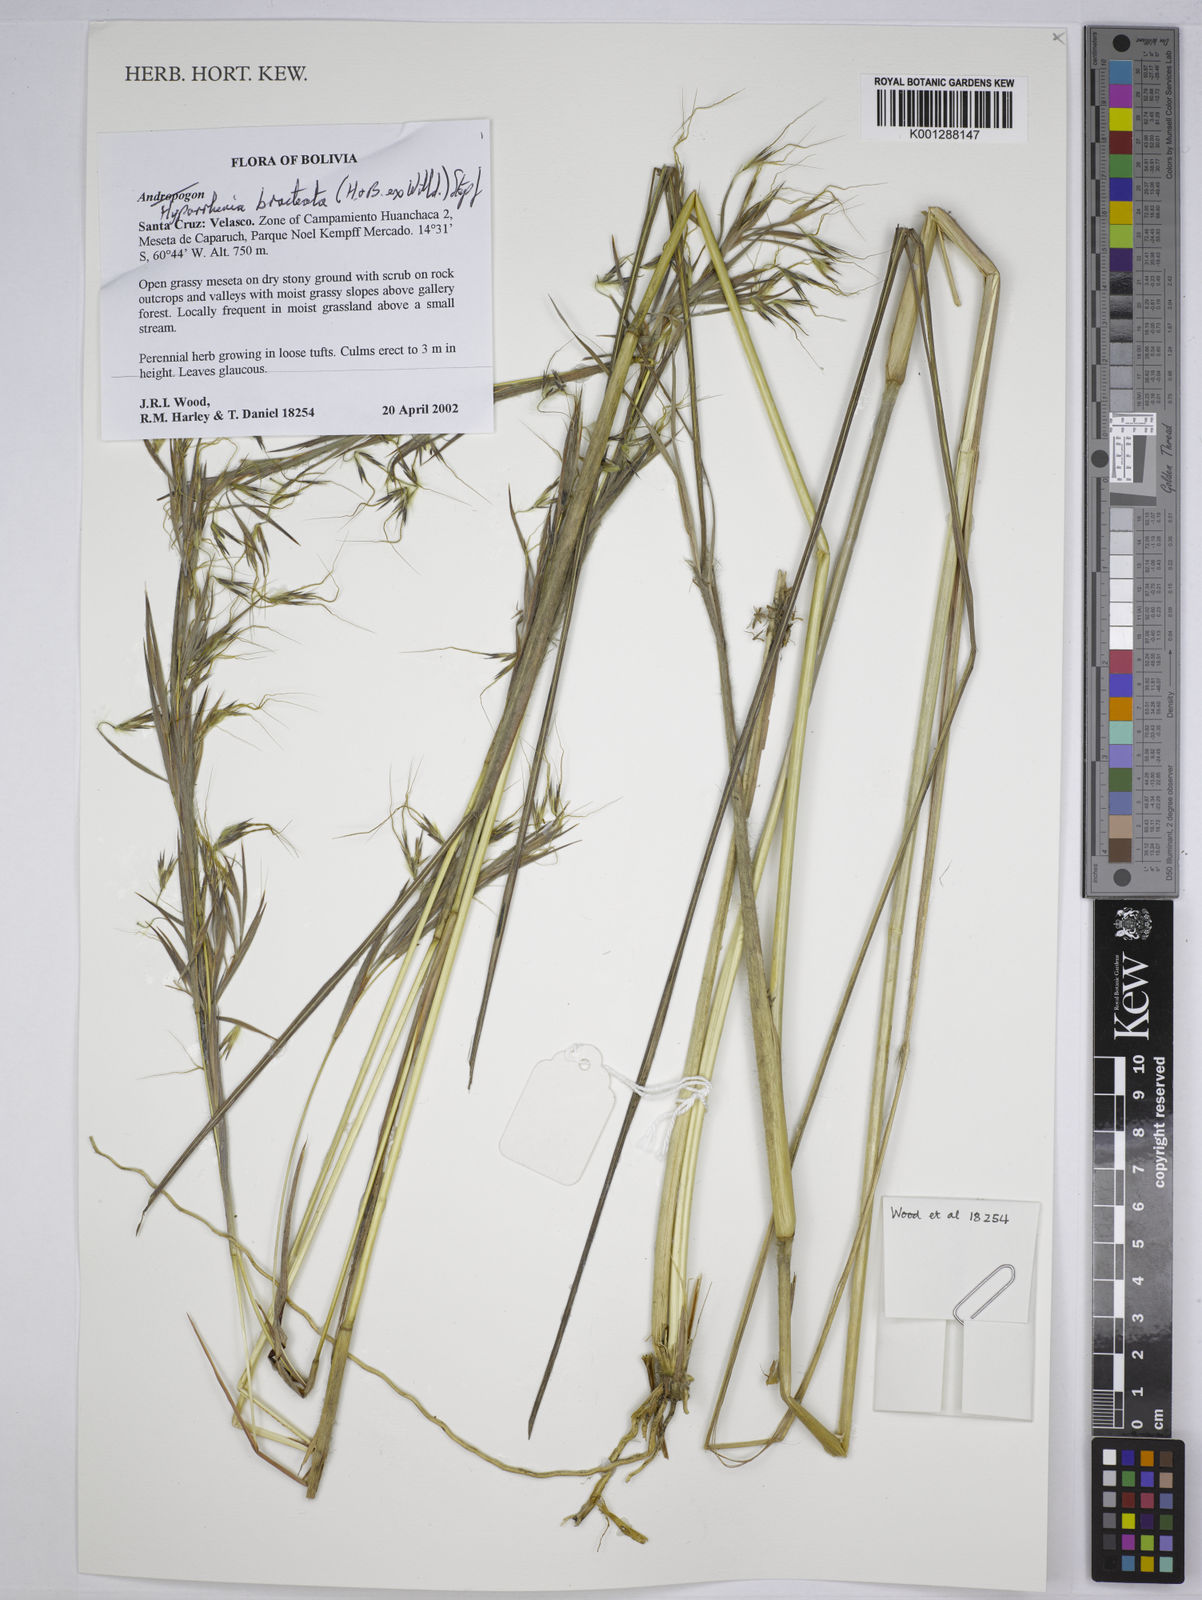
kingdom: Plantae
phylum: Tracheophyta
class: Liliopsida
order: Poales
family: Poaceae
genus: Hyparrhenia
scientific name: Hyparrhenia bracteata
